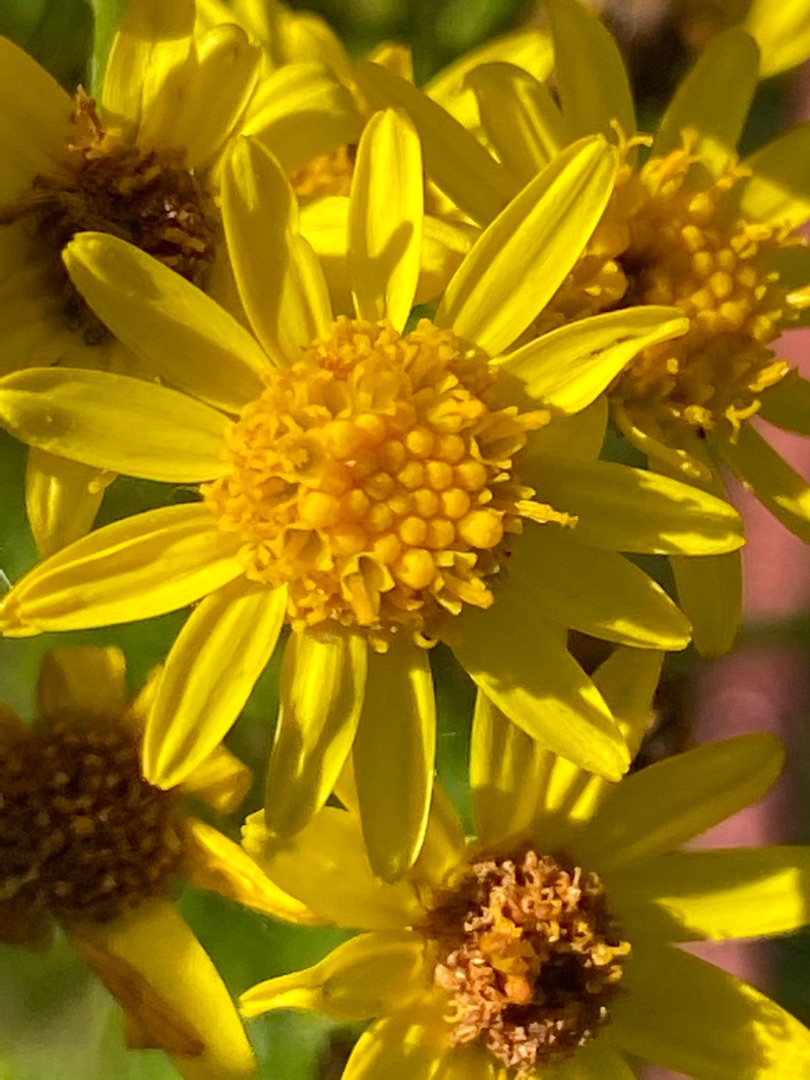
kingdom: Plantae
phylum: Tracheophyta
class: Magnoliopsida
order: Asterales
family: Asteraceae
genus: Jacobaea
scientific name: Jacobaea vulgaris
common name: Eng-brandbæger
